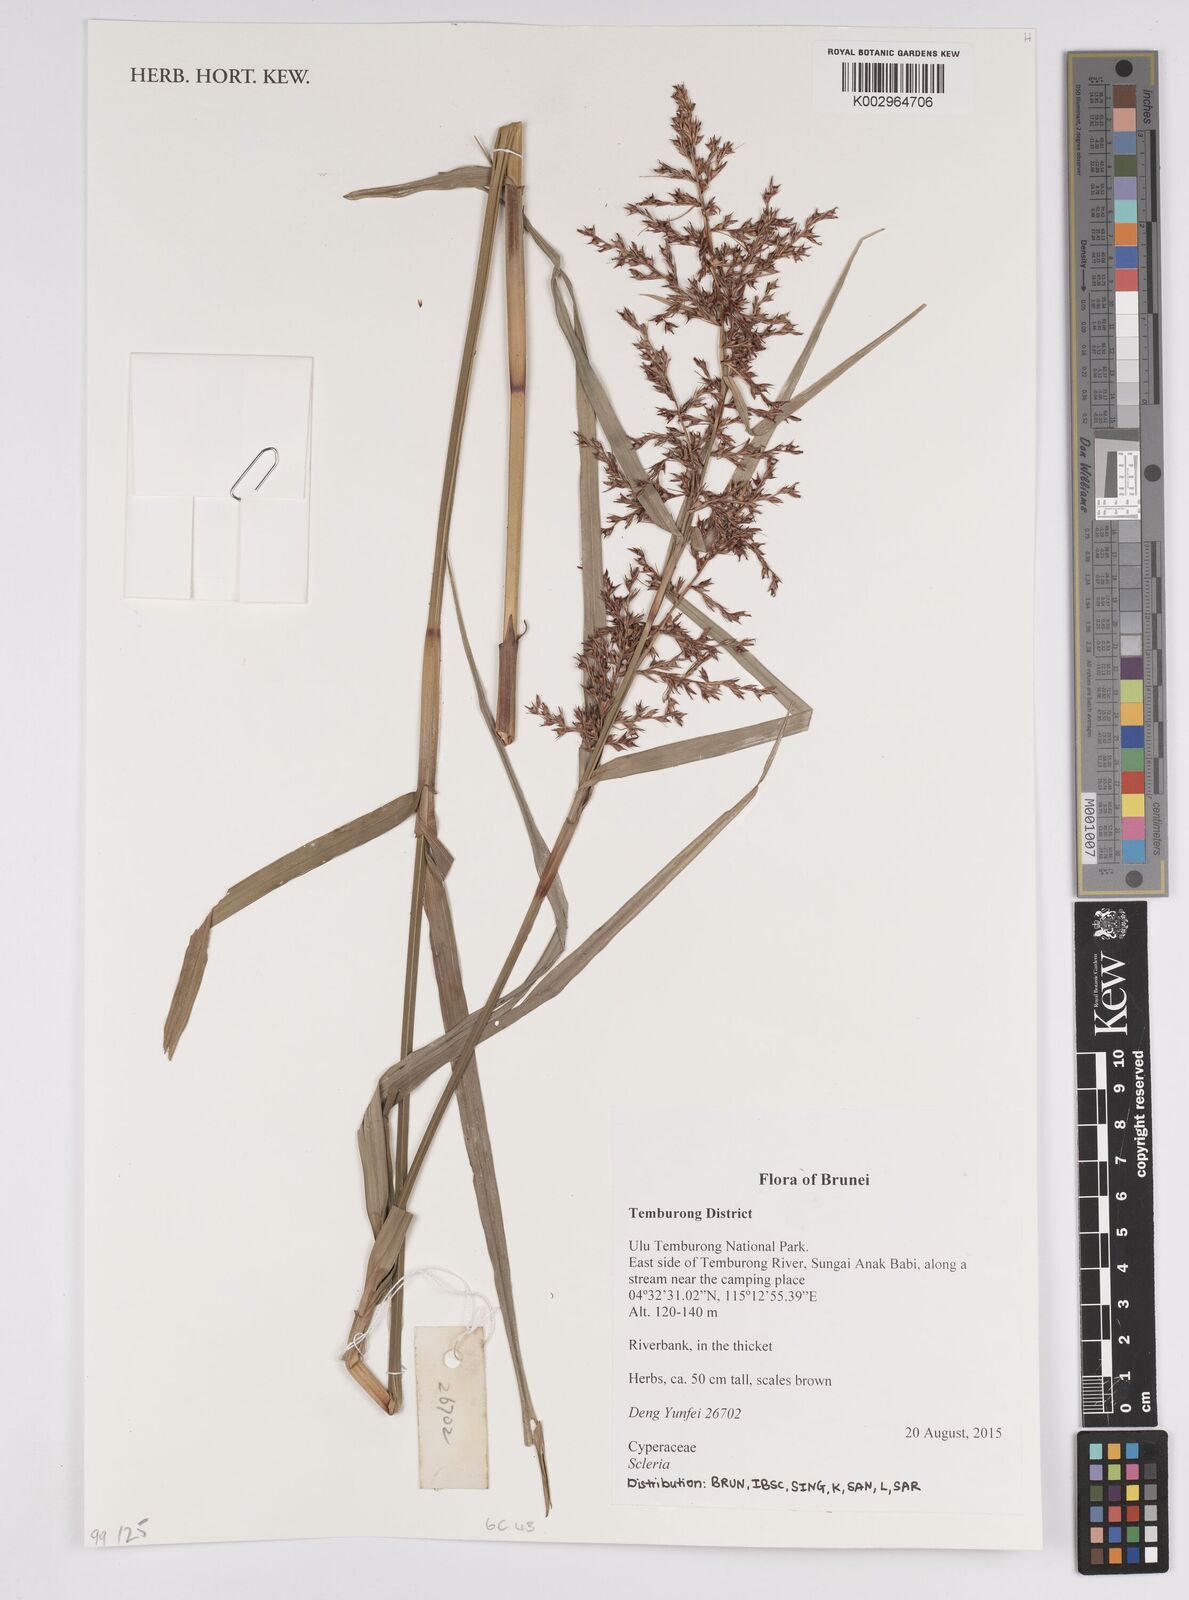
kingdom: Plantae
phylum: Tracheophyta
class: Liliopsida
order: Poales
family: Cyperaceae
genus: Scleria
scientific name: Scleria
